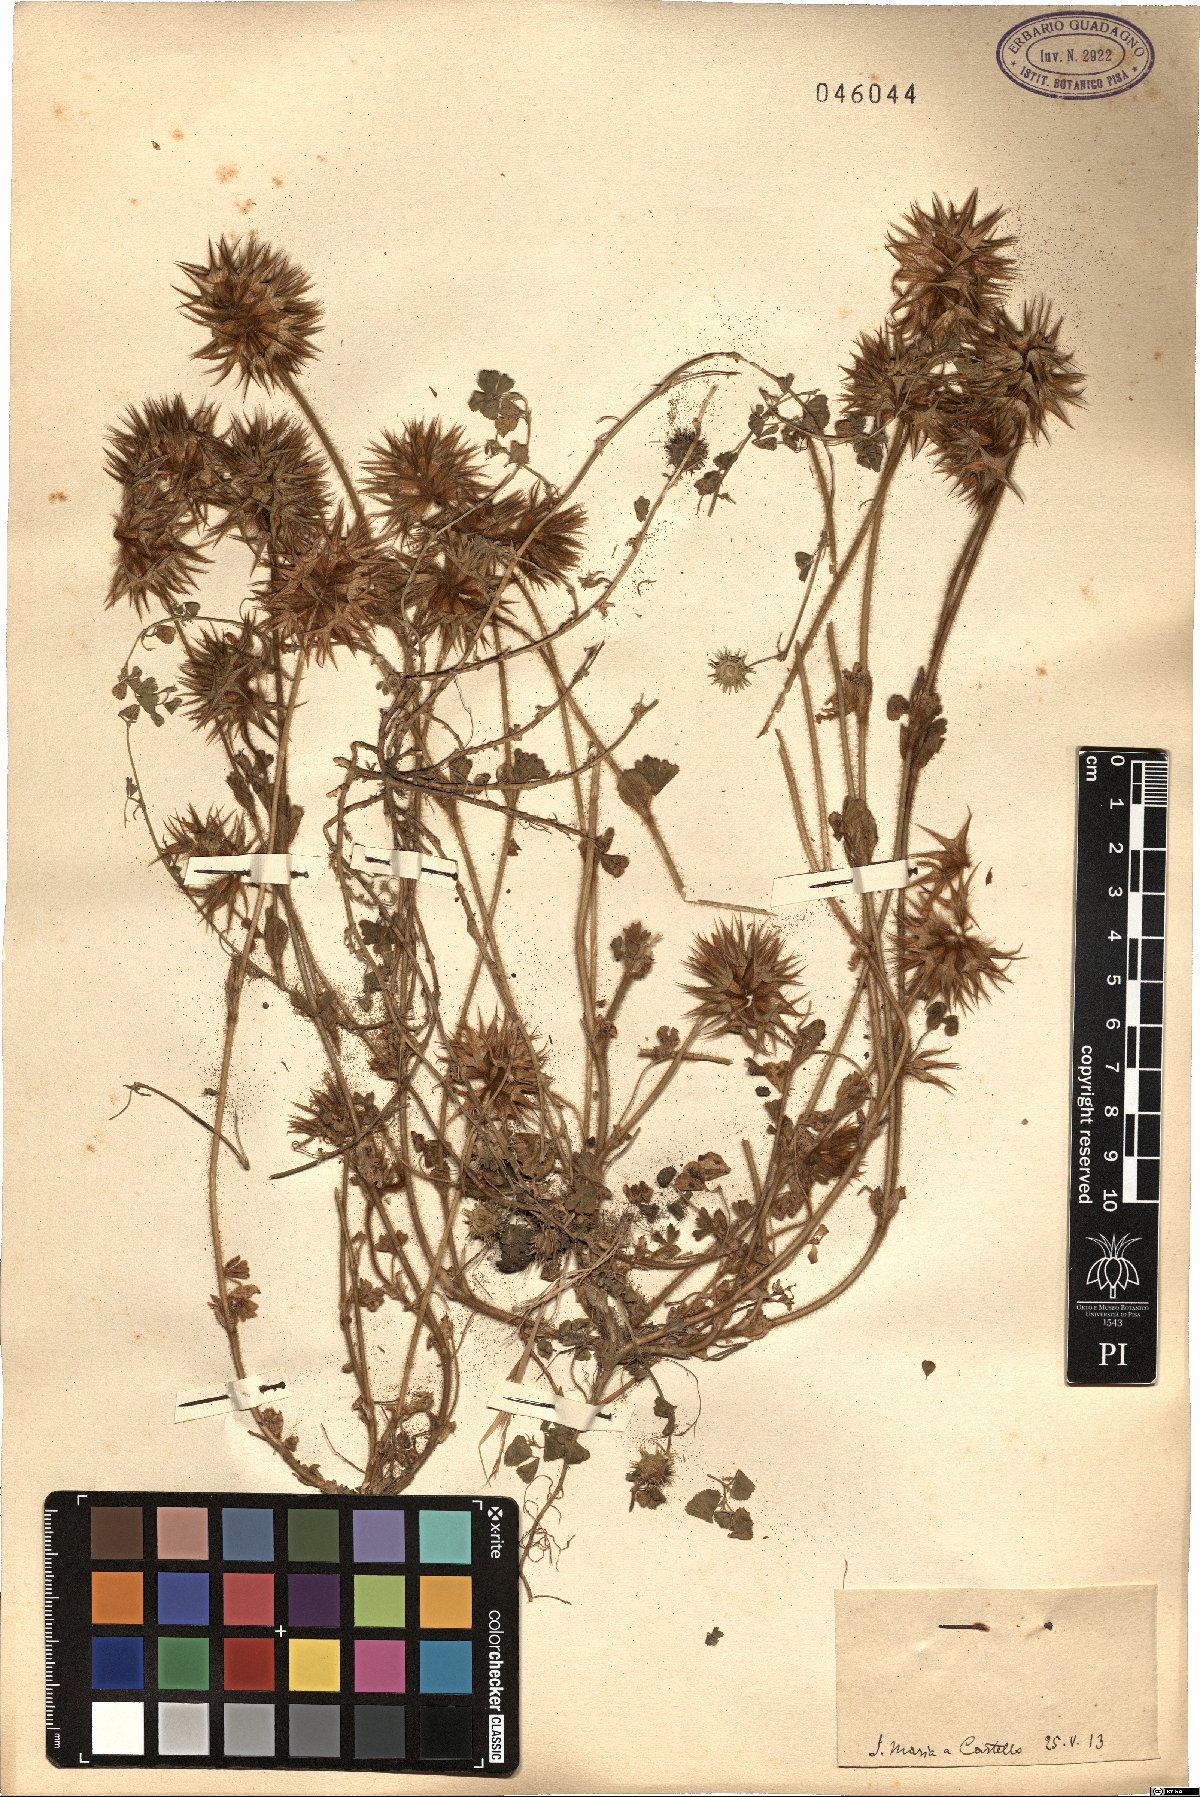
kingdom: Plantae
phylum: Tracheophyta
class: Magnoliopsida
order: Fabales
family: Fabaceae
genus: Trifolium
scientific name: Trifolium
